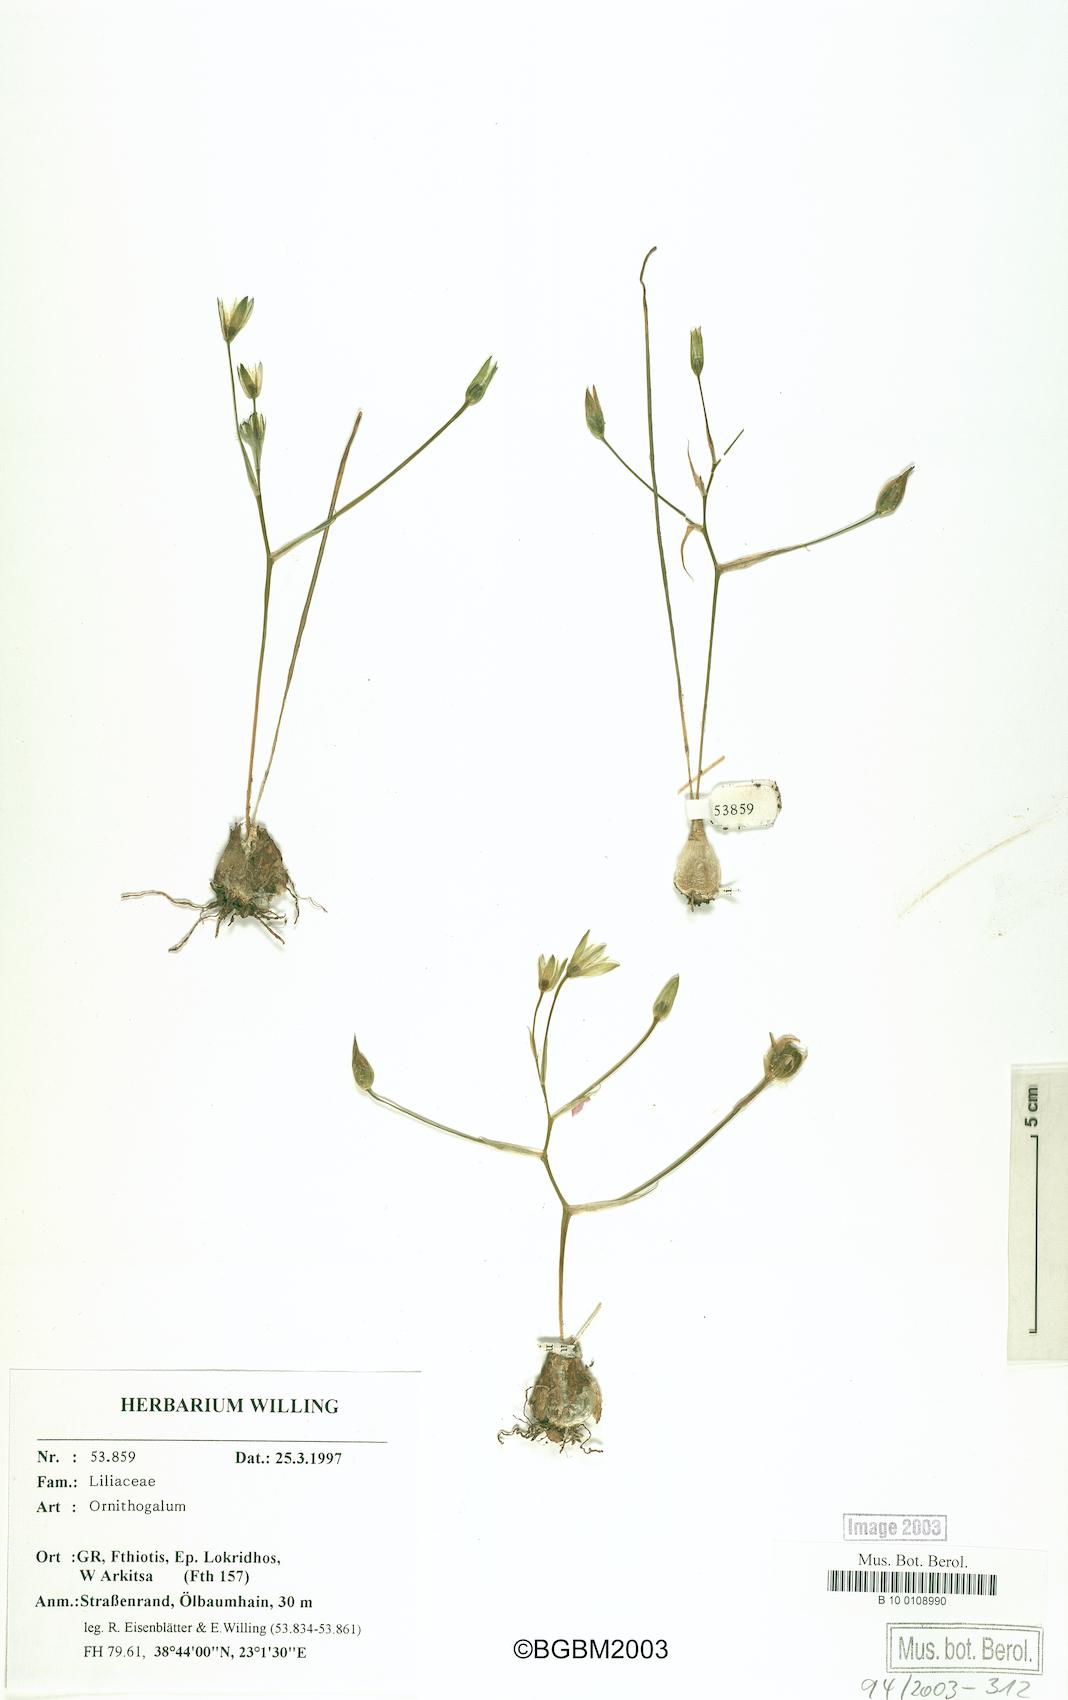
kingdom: Plantae
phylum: Tracheophyta
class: Liliopsida
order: Asparagales
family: Asparagaceae
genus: Ornithogalum
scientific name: Ornithogalum
